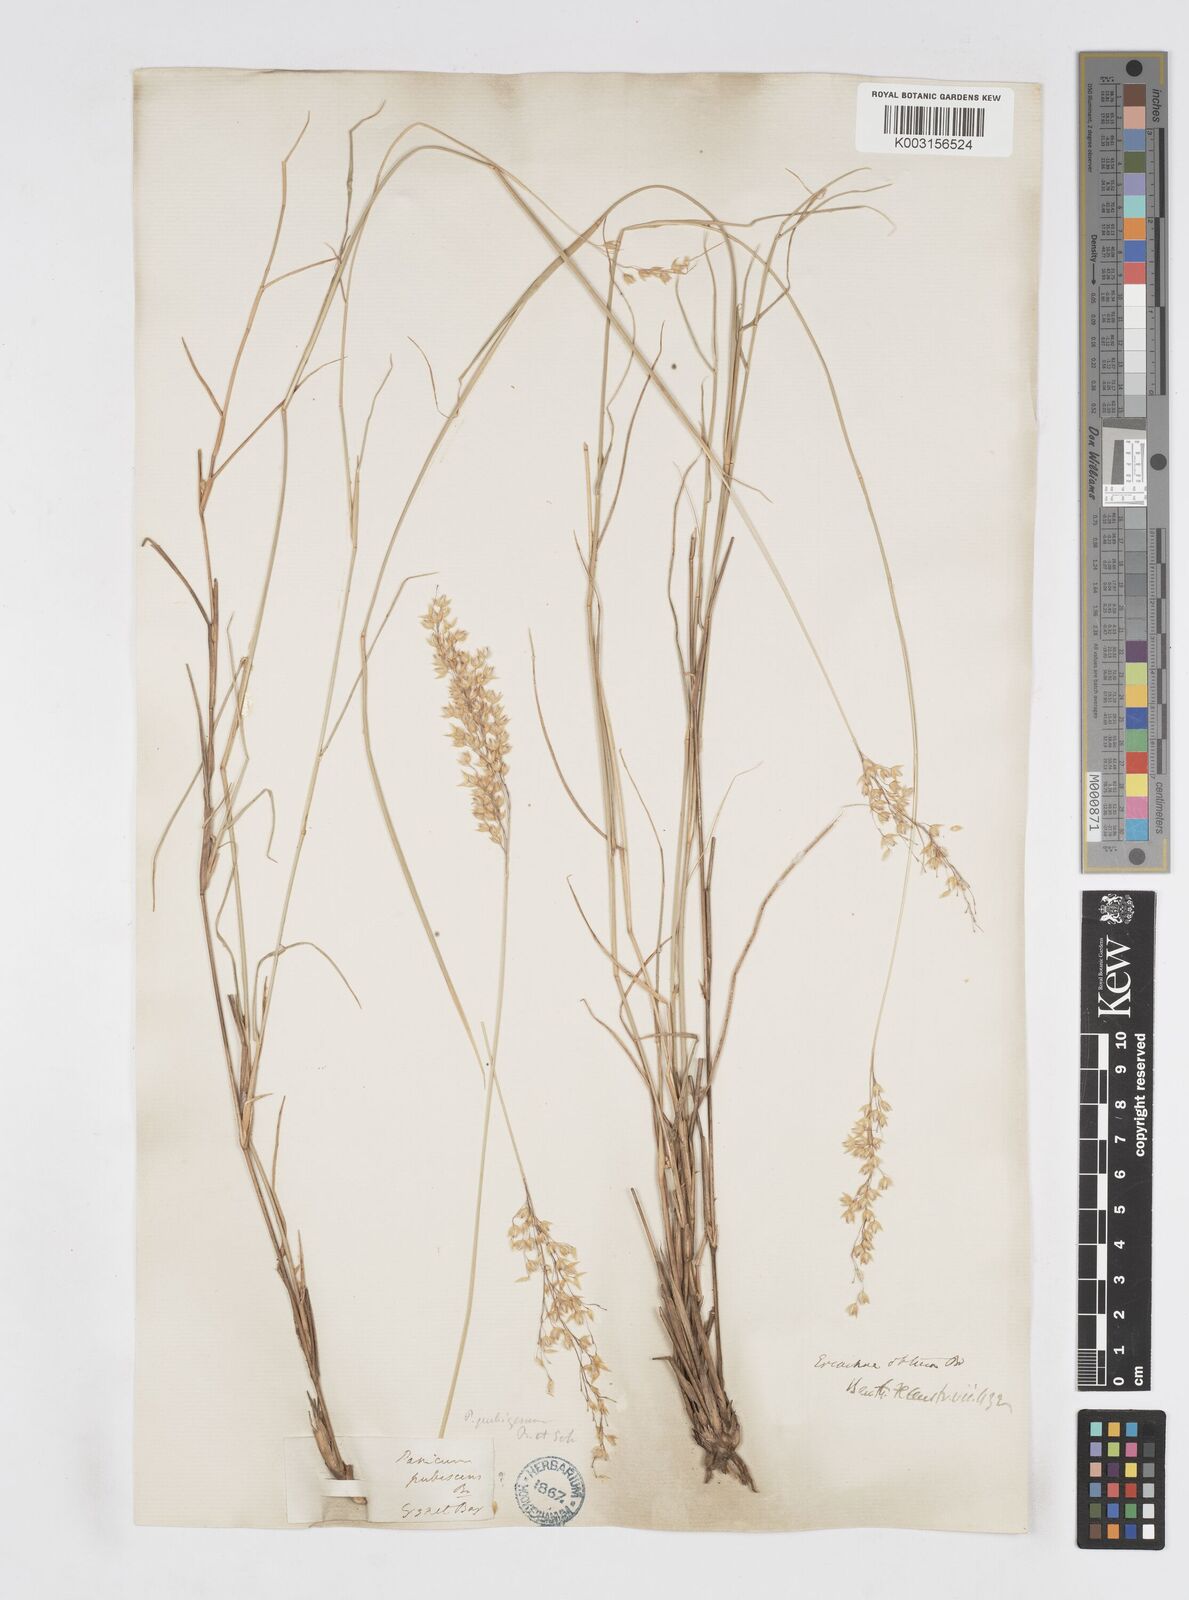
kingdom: Plantae
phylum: Tracheophyta
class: Liliopsida
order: Poales
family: Poaceae
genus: Eriachne
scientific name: Eriachne obtusa
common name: Northern wanderrie grass
